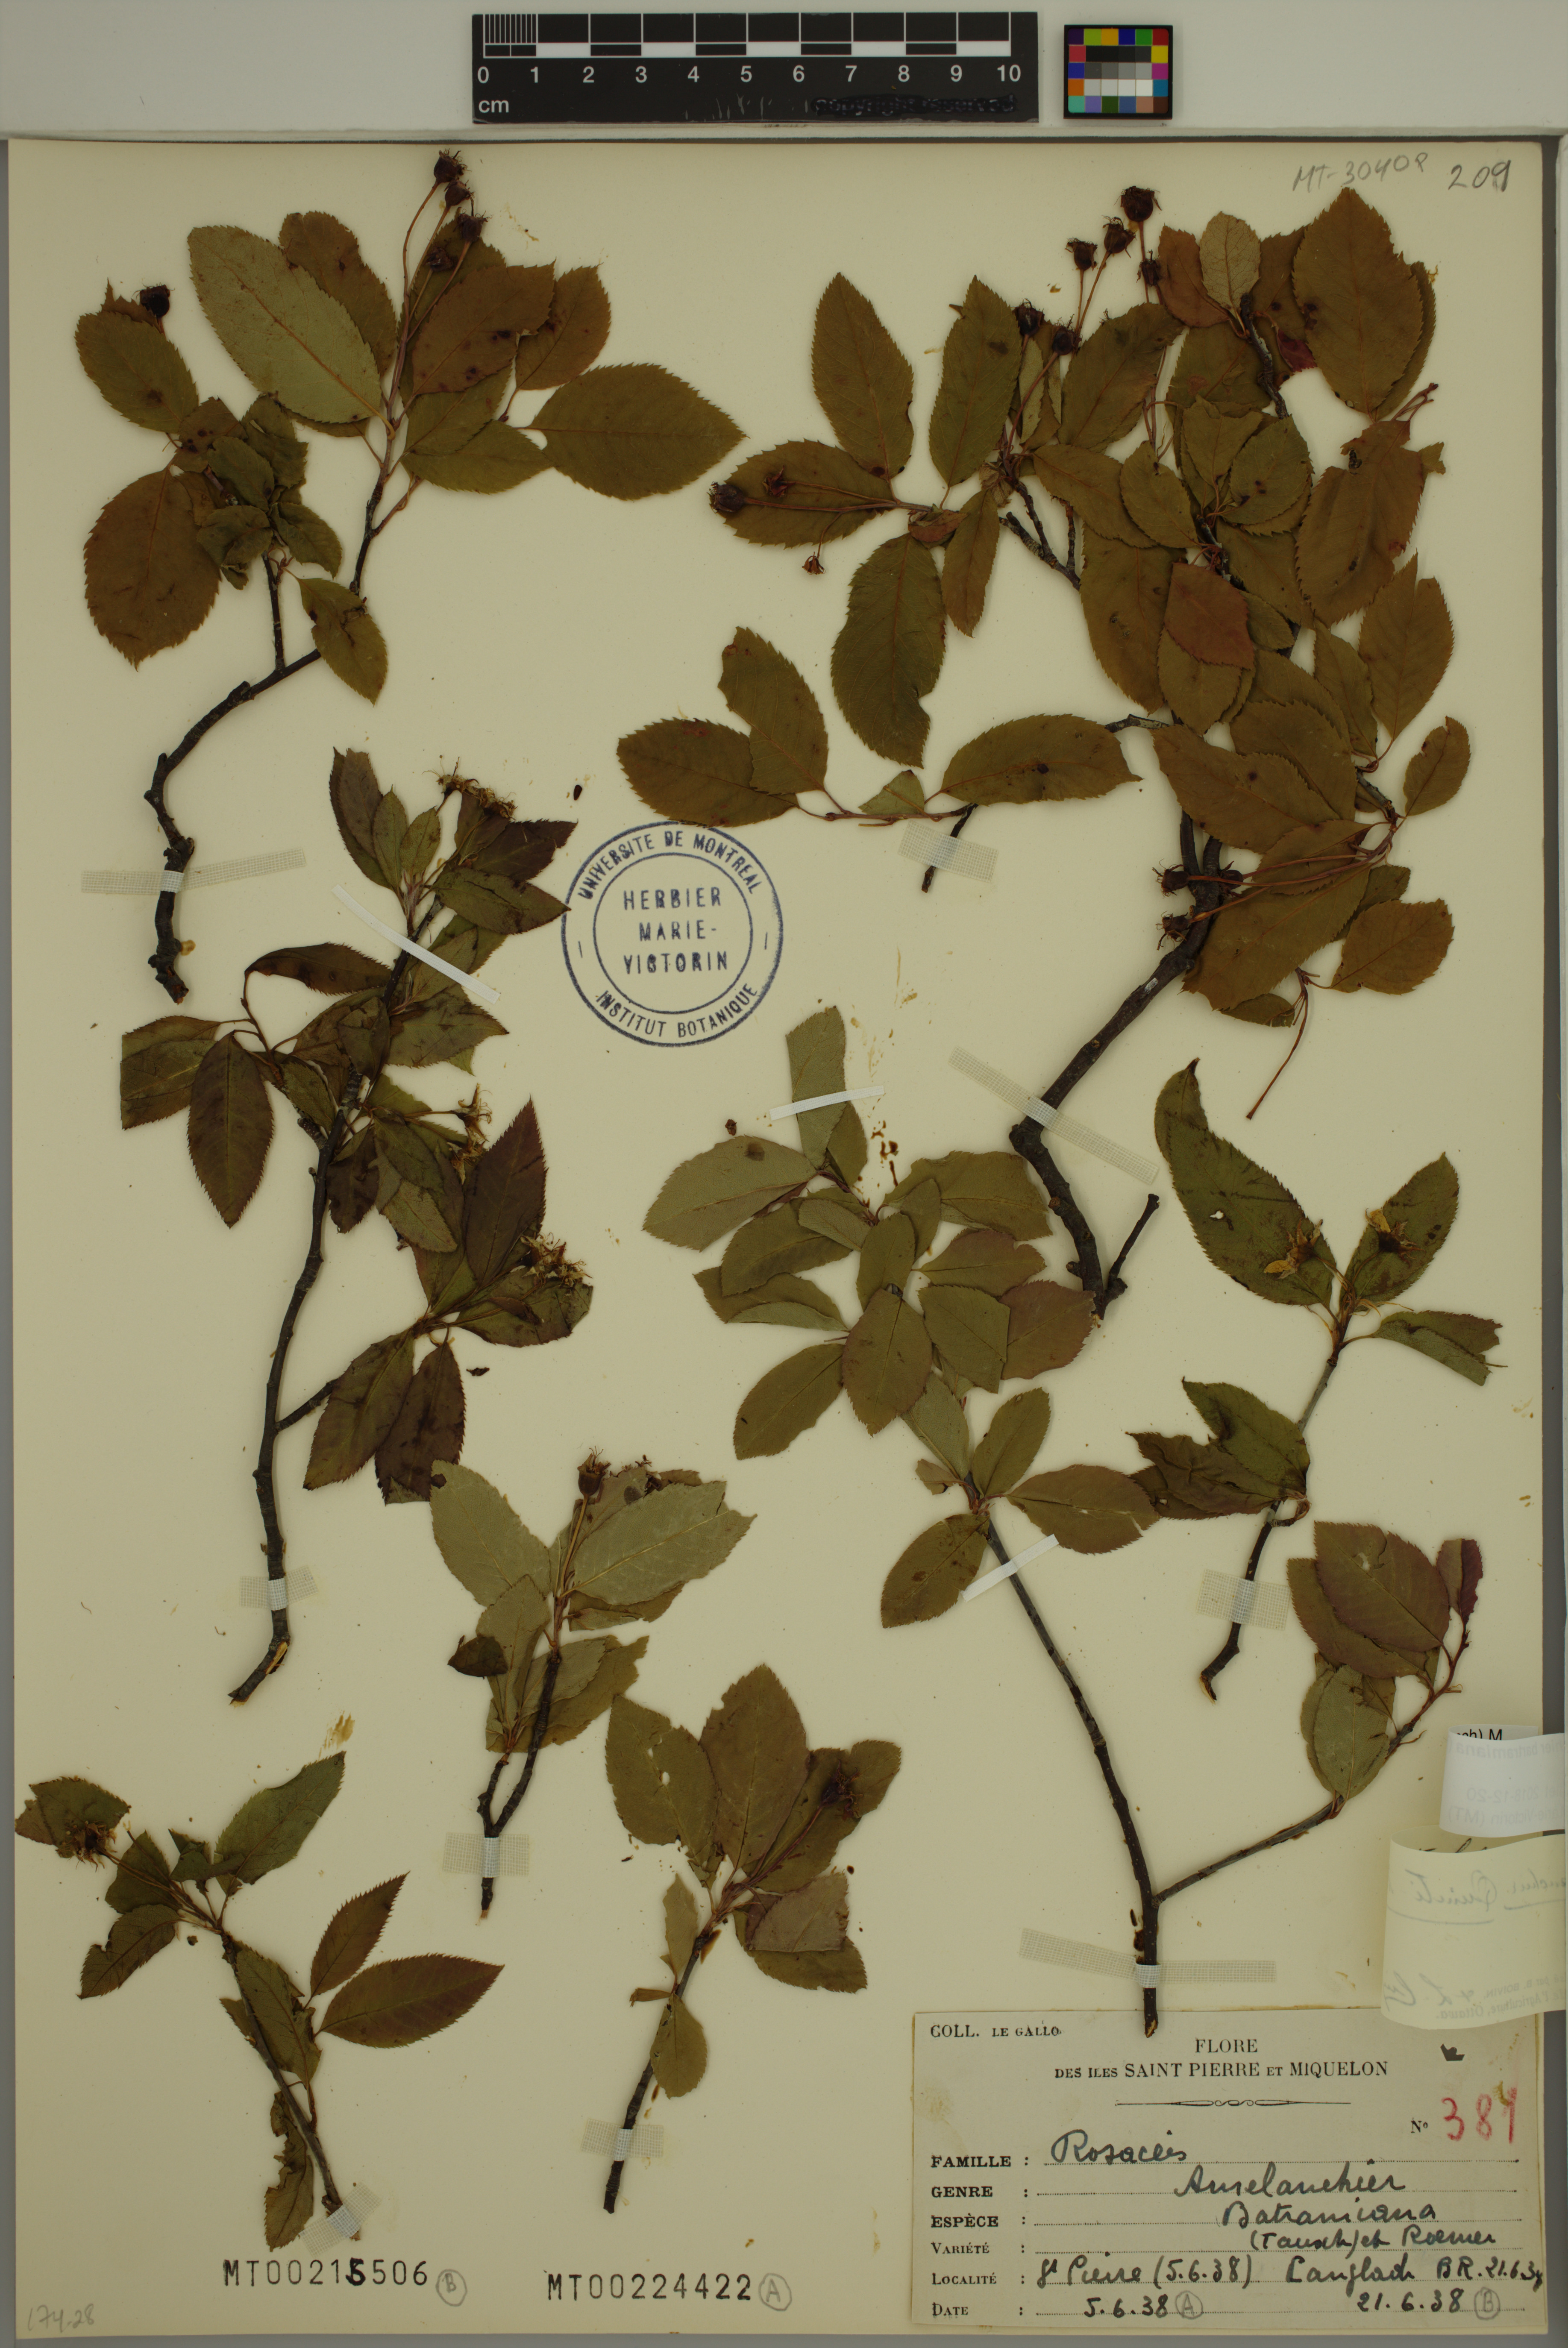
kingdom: Plantae
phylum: Tracheophyta
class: Magnoliopsida
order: Rosales
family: Rosaceae
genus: Amelanchier
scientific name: Amelanchier bartramiana
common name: Mountain serviceberry
